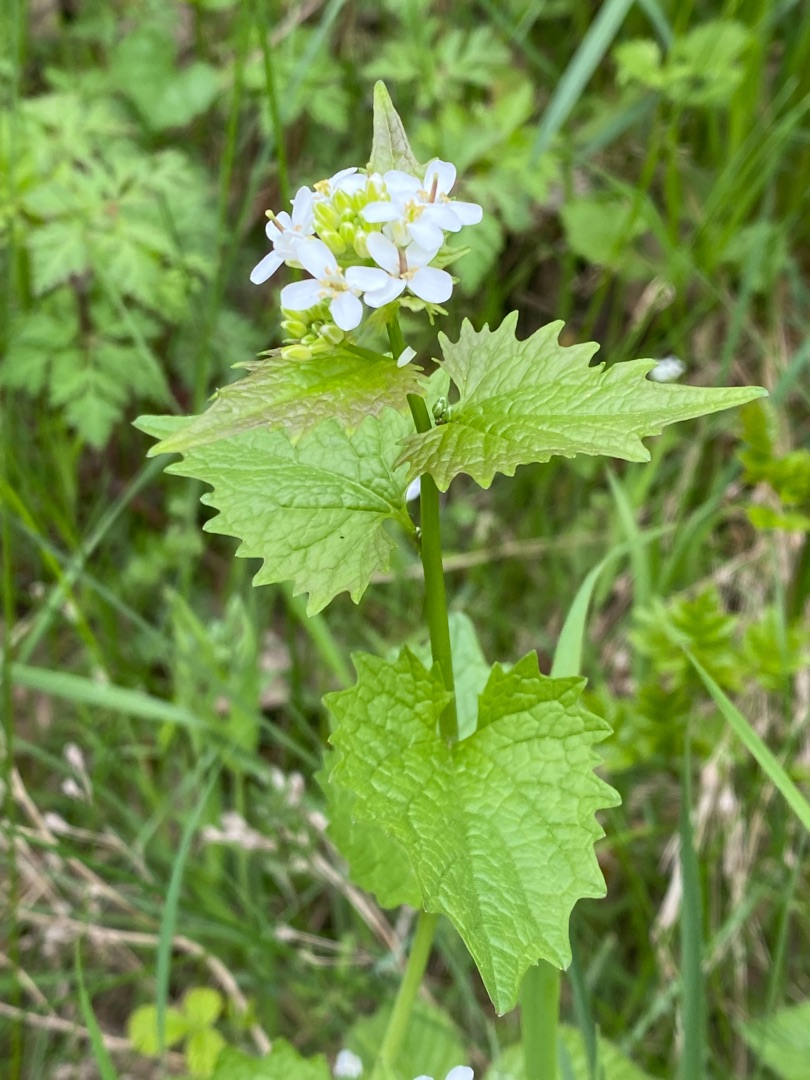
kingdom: Plantae
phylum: Tracheophyta
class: Magnoliopsida
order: Brassicales
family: Brassicaceae
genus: Alliaria
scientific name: Alliaria petiolata
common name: Løgkarse
